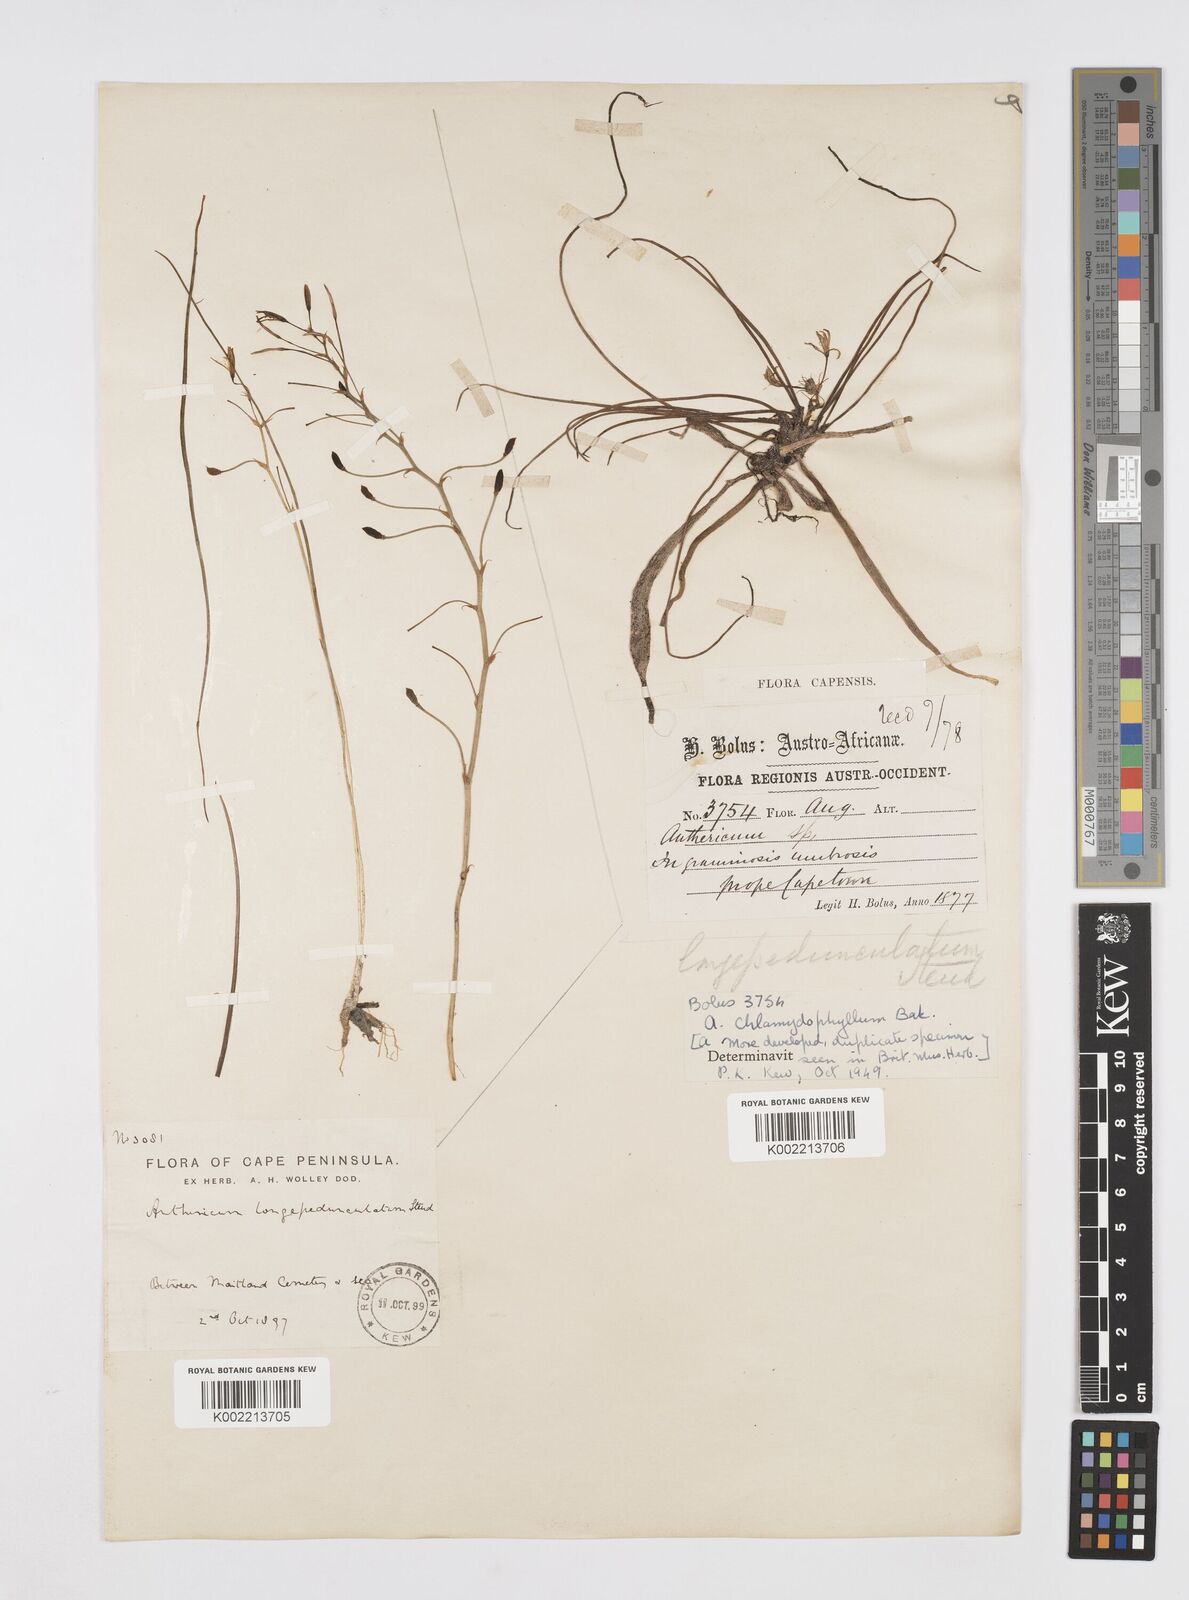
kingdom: Plantae
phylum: Tracheophyta
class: Liliopsida
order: Asparagales
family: Asphodelaceae
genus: Trachyandra
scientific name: Trachyandra filiformis
